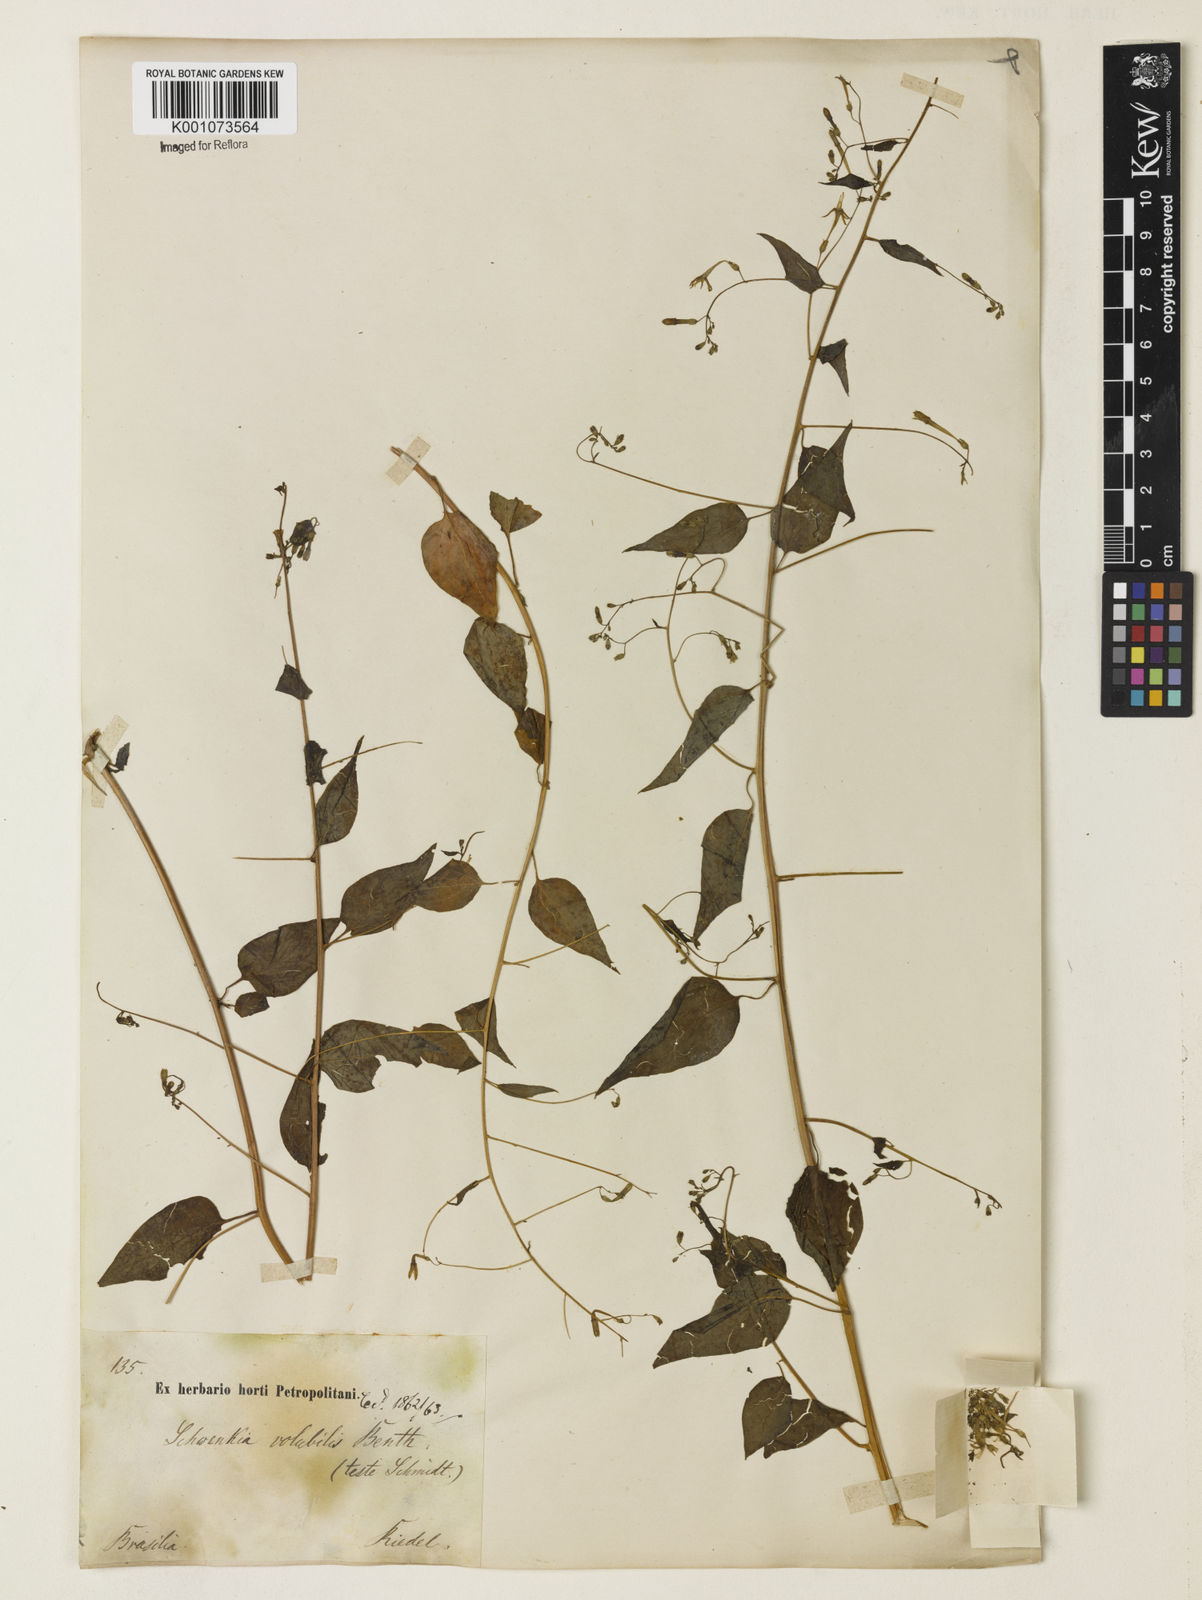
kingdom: Plantae
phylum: Tracheophyta
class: Magnoliopsida
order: Solanales
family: Solanaceae
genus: Schwenckia
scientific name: Schwenckia volubilis
